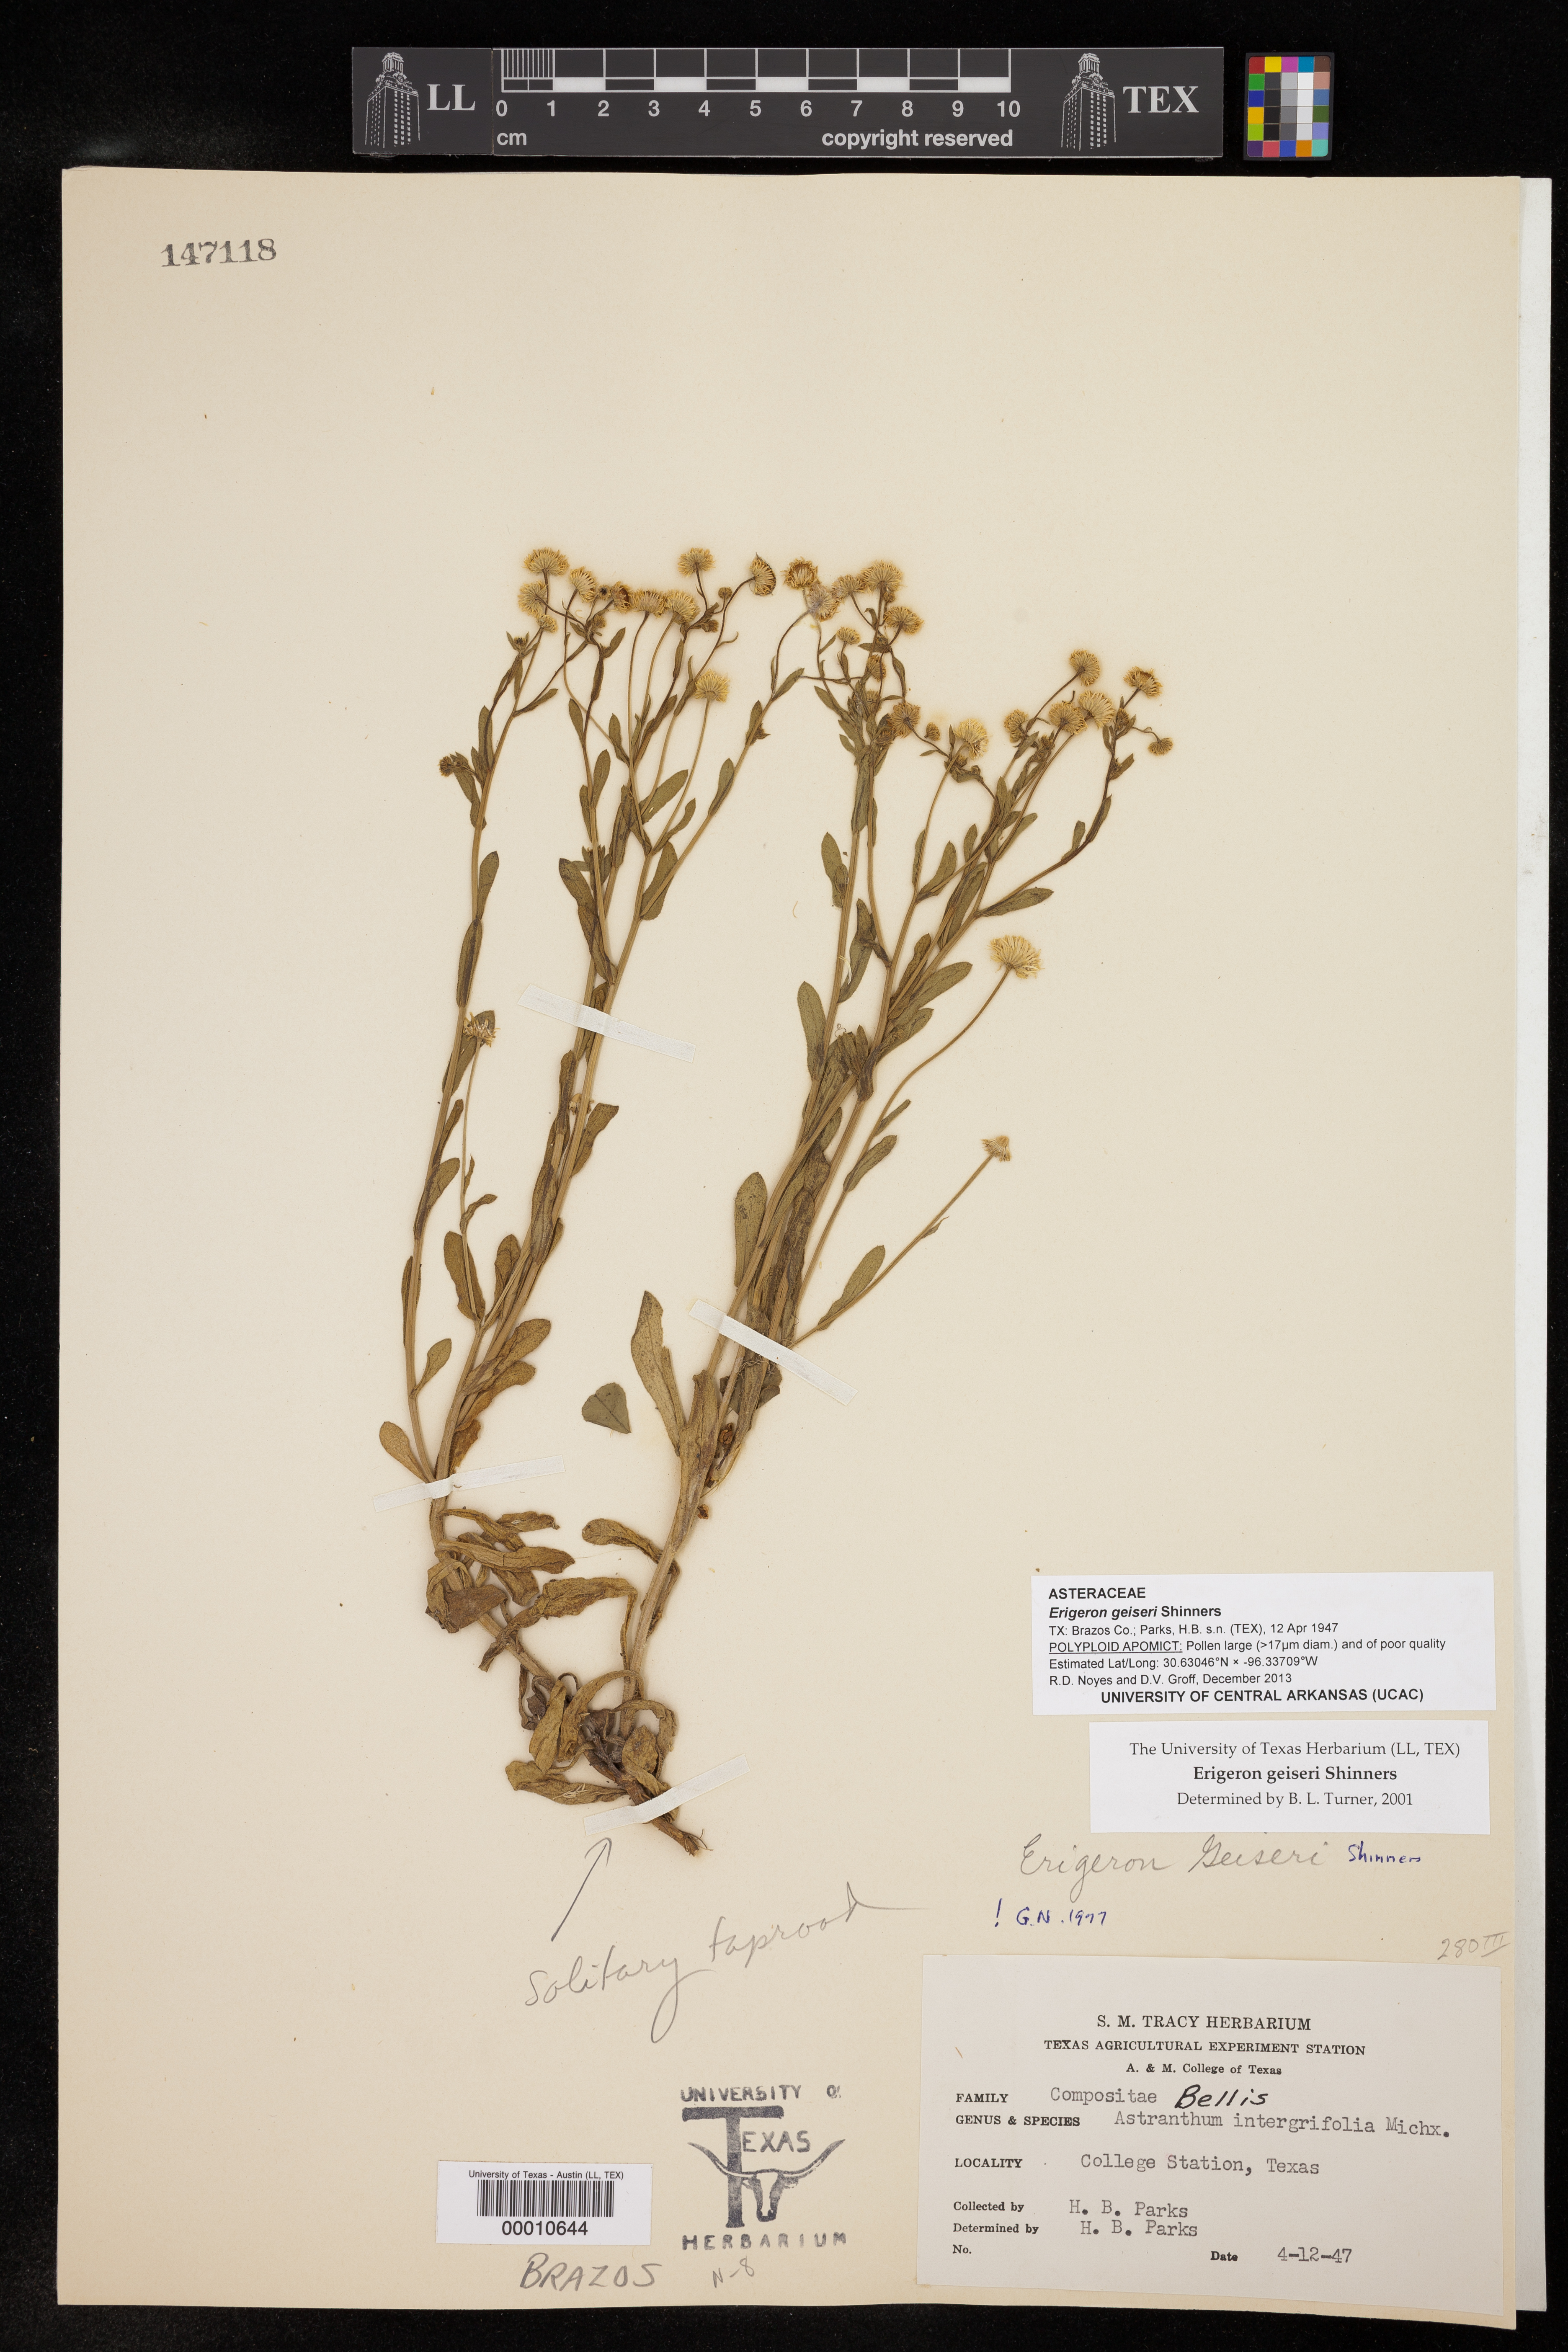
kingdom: Plantae
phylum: Tracheophyta
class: Magnoliopsida
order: Asterales
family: Asteraceae
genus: Erigeron
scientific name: Erigeron geiseri
